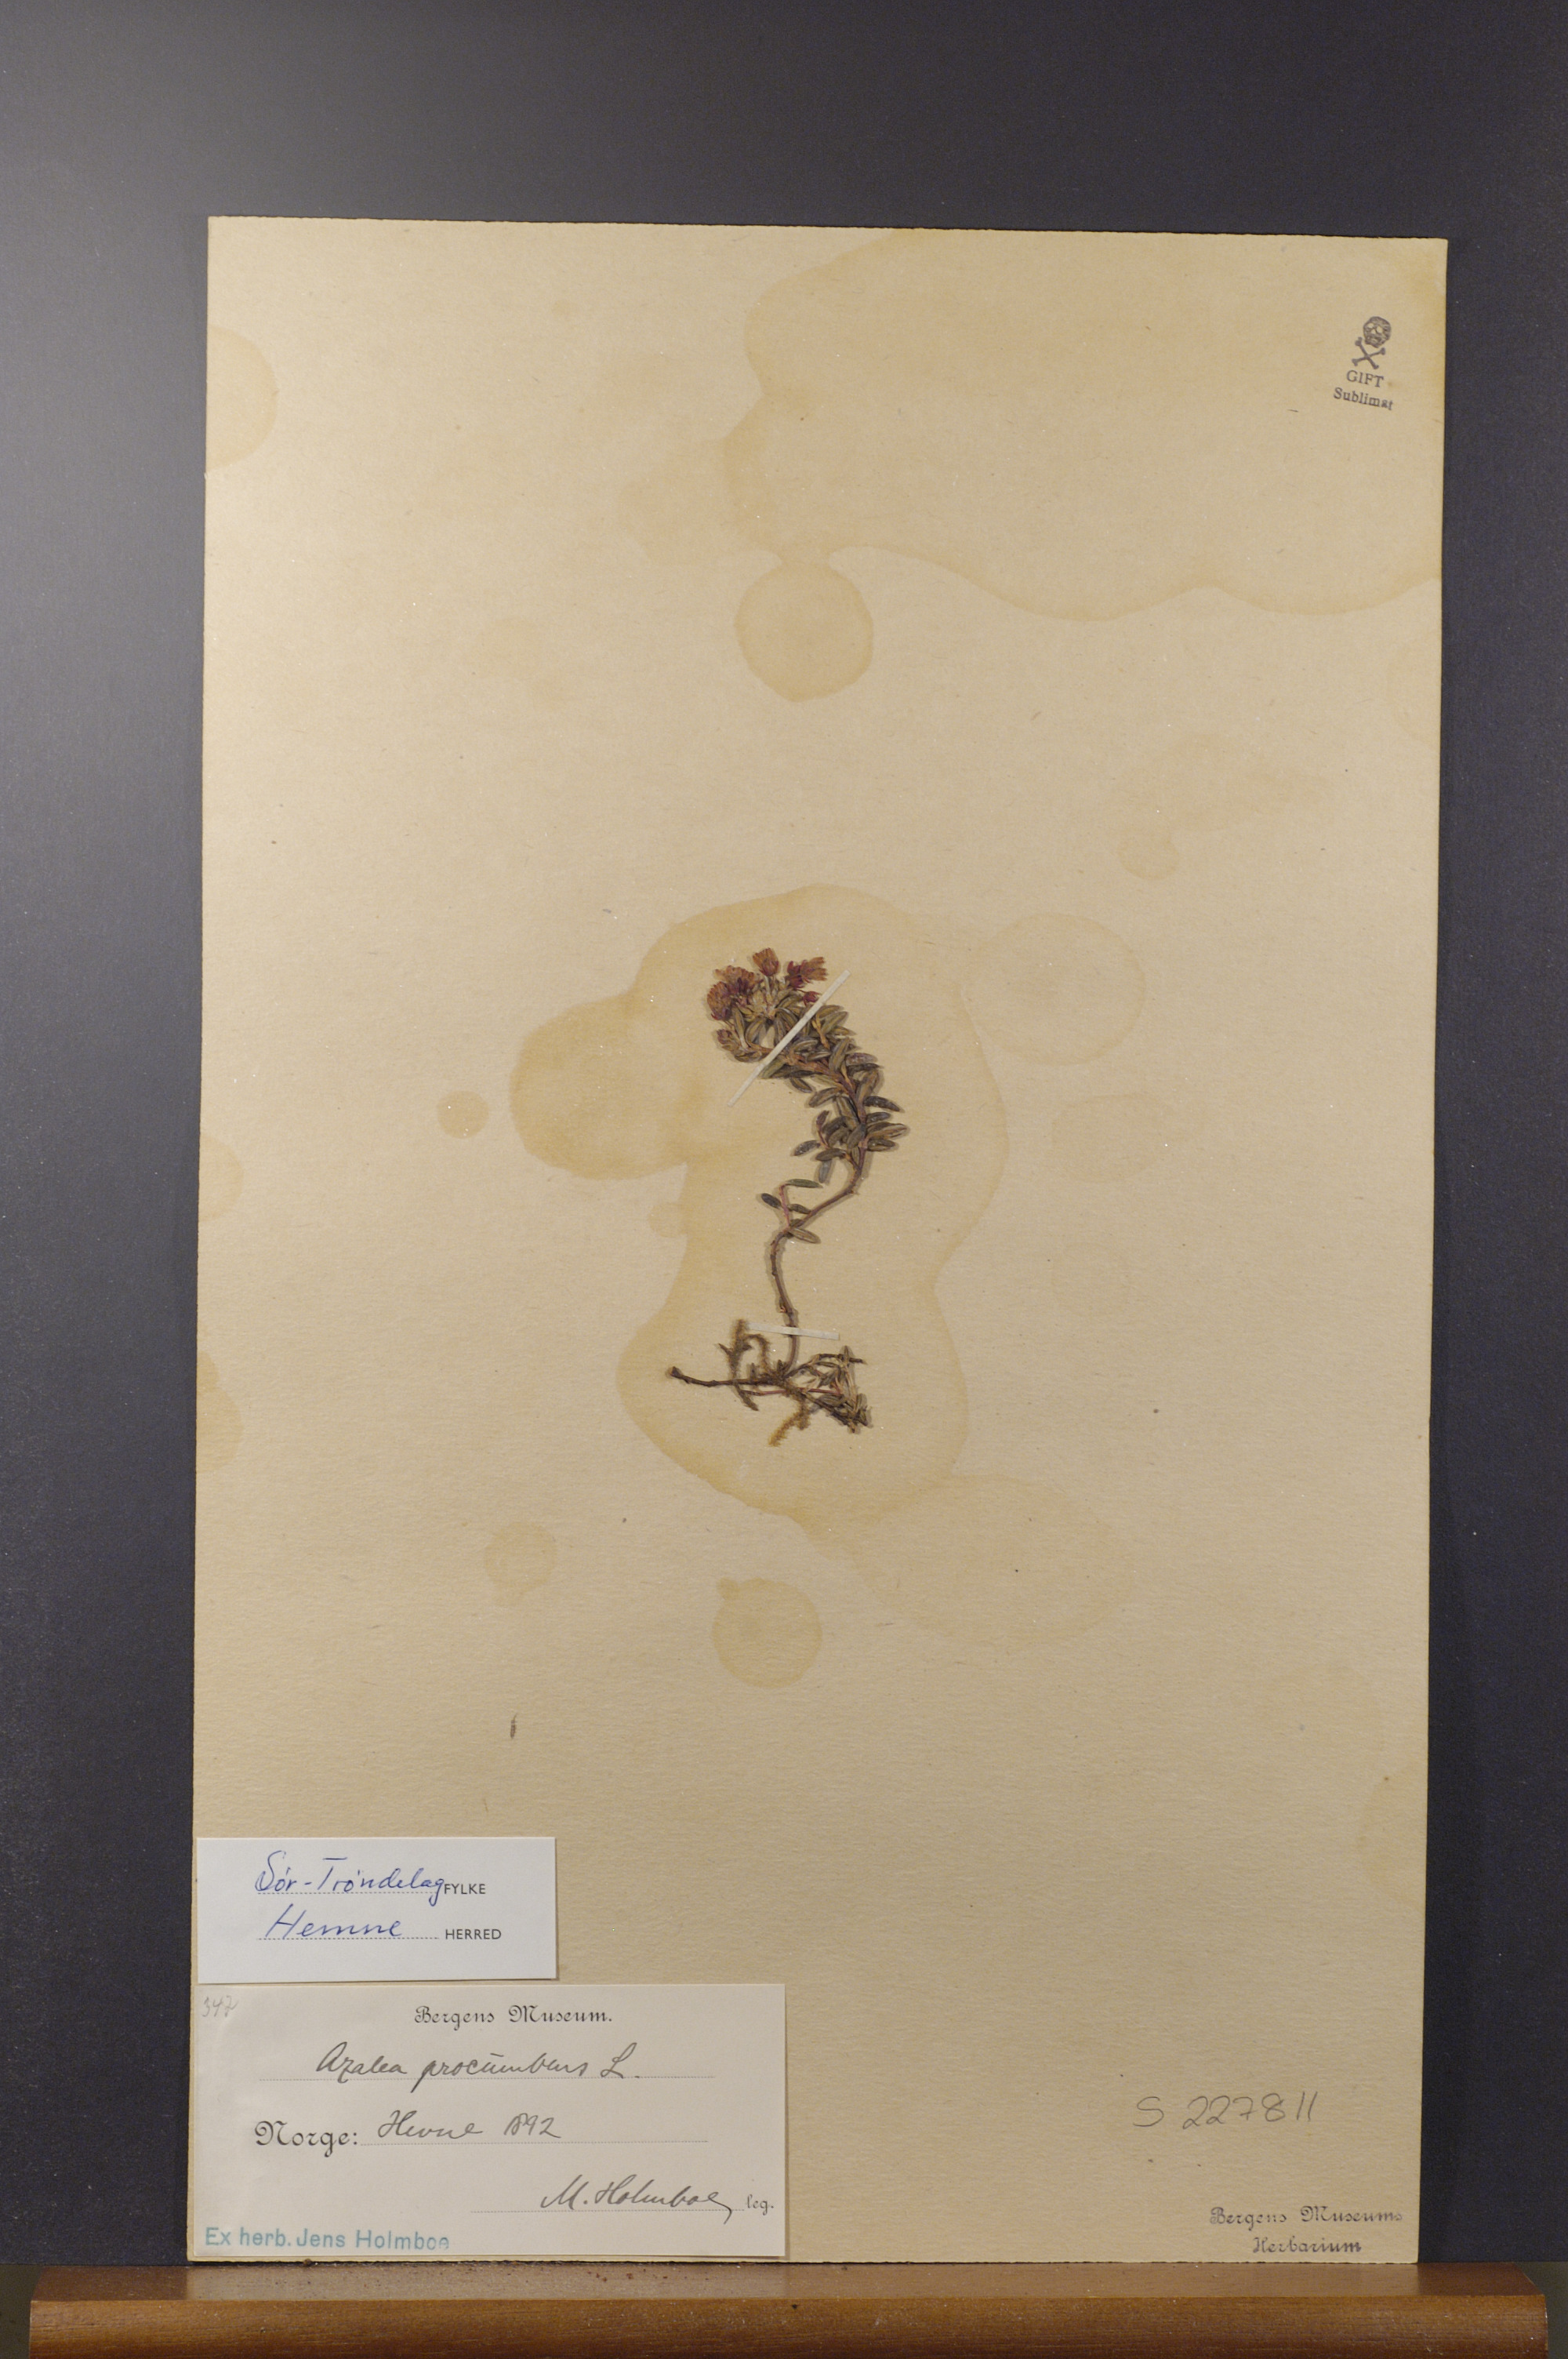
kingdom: Plantae
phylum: Tracheophyta
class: Magnoliopsida
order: Ericales
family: Ericaceae
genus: Kalmia
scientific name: Kalmia procumbens
